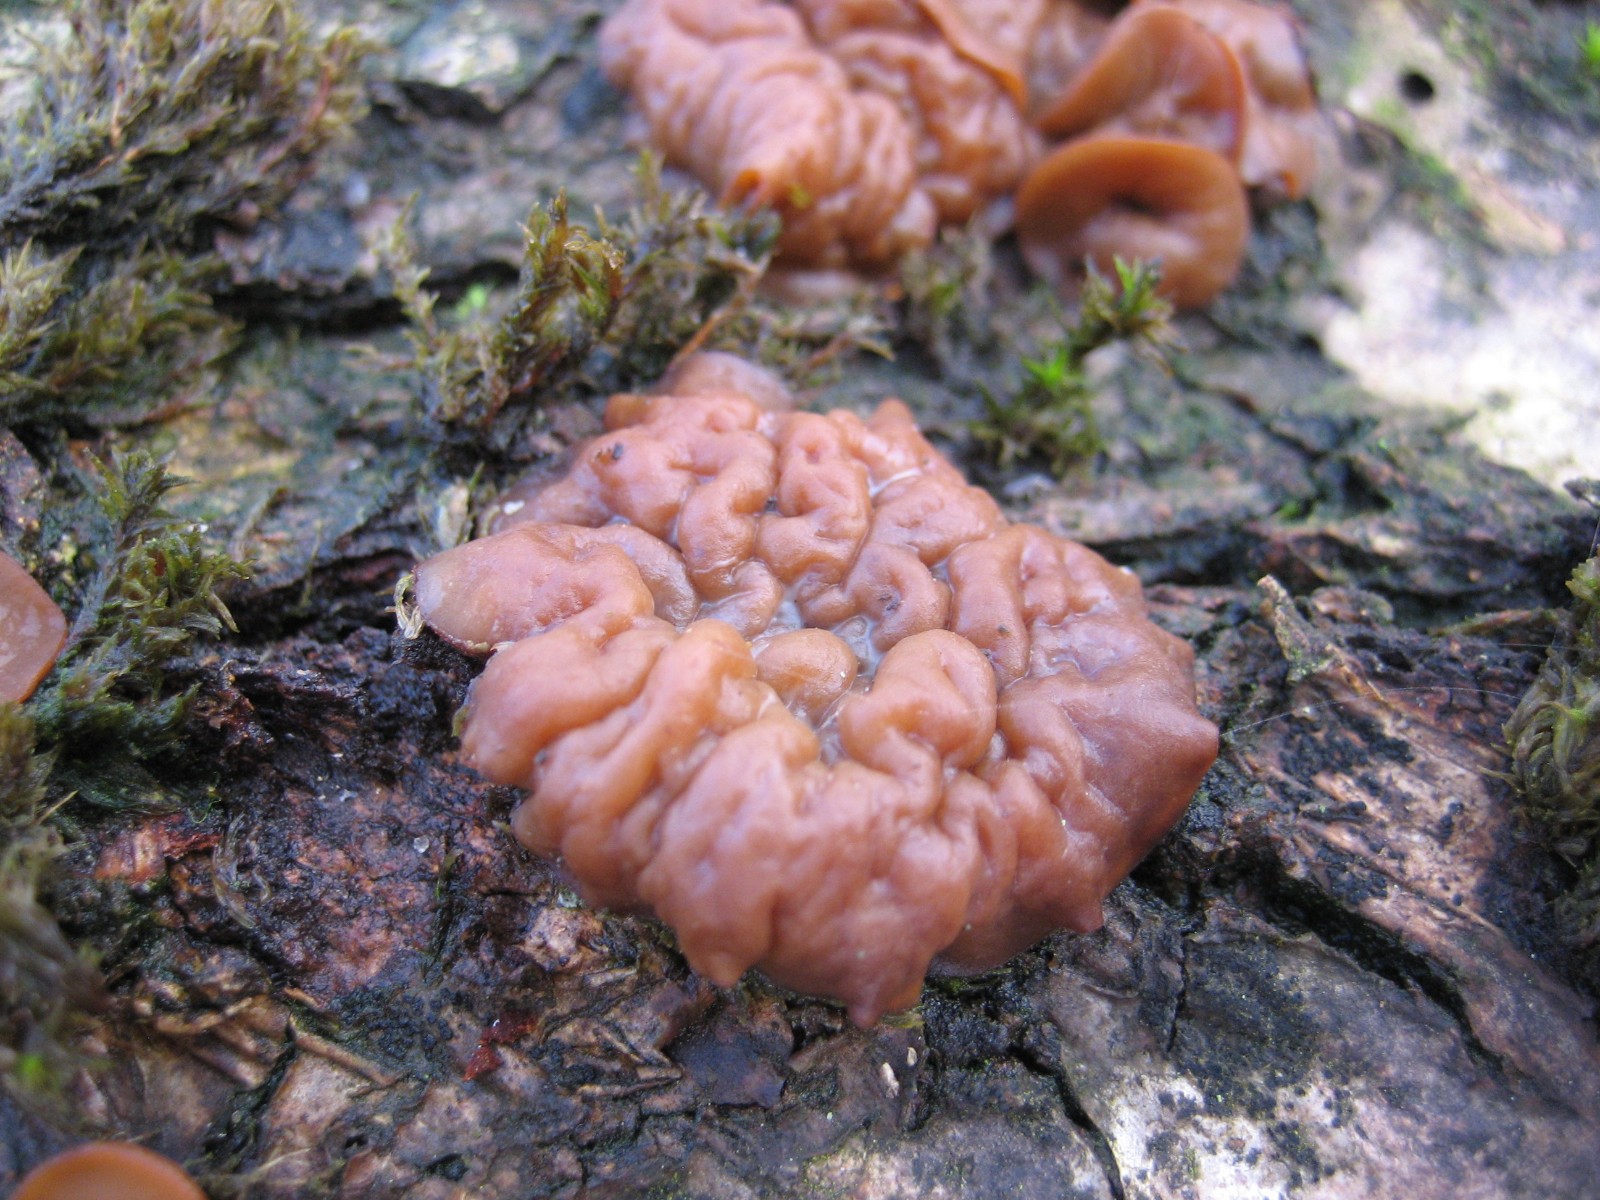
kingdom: Fungi
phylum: Ascomycota
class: Leotiomycetes
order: Helotiales
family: Rutstroemiaceae
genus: Rutstroemia
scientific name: Rutstroemia firma
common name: gren-brunskive
